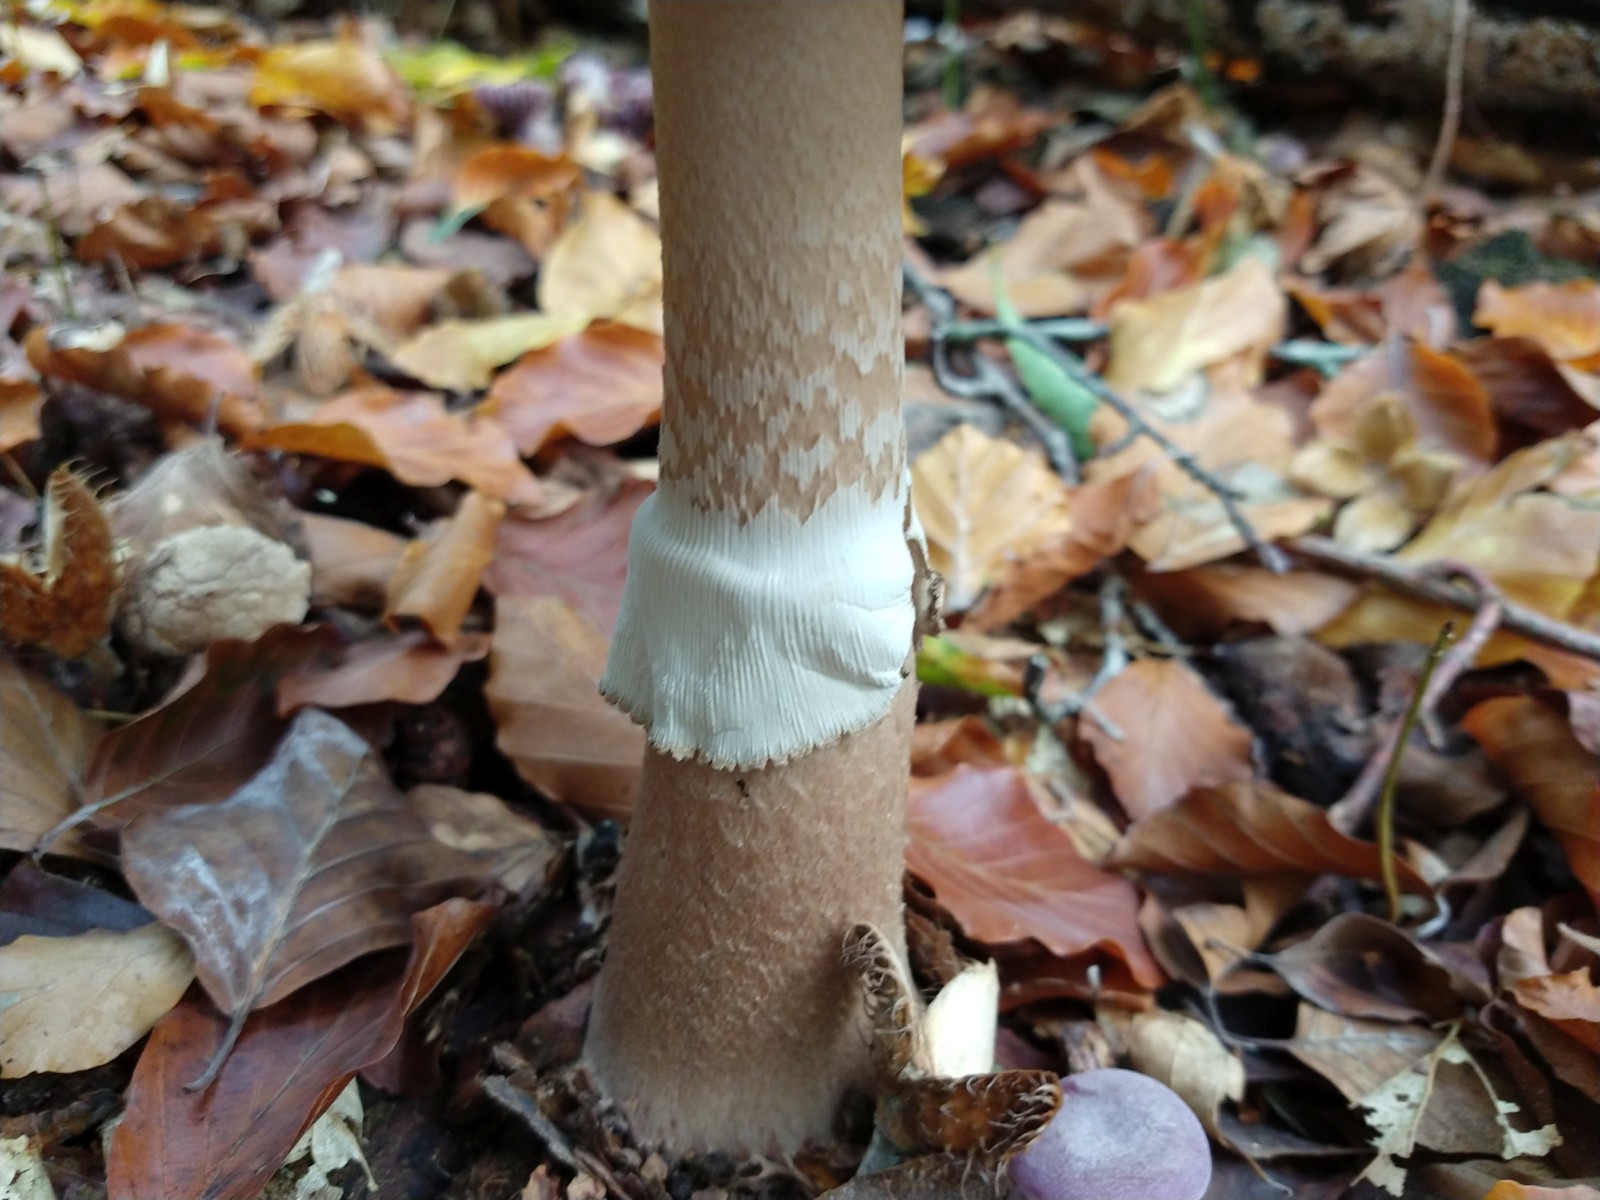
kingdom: Fungi
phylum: Basidiomycota
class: Agaricomycetes
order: Agaricales
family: Amanitaceae
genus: Amanita
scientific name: Amanita rubescens
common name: rødmende fluesvamp
